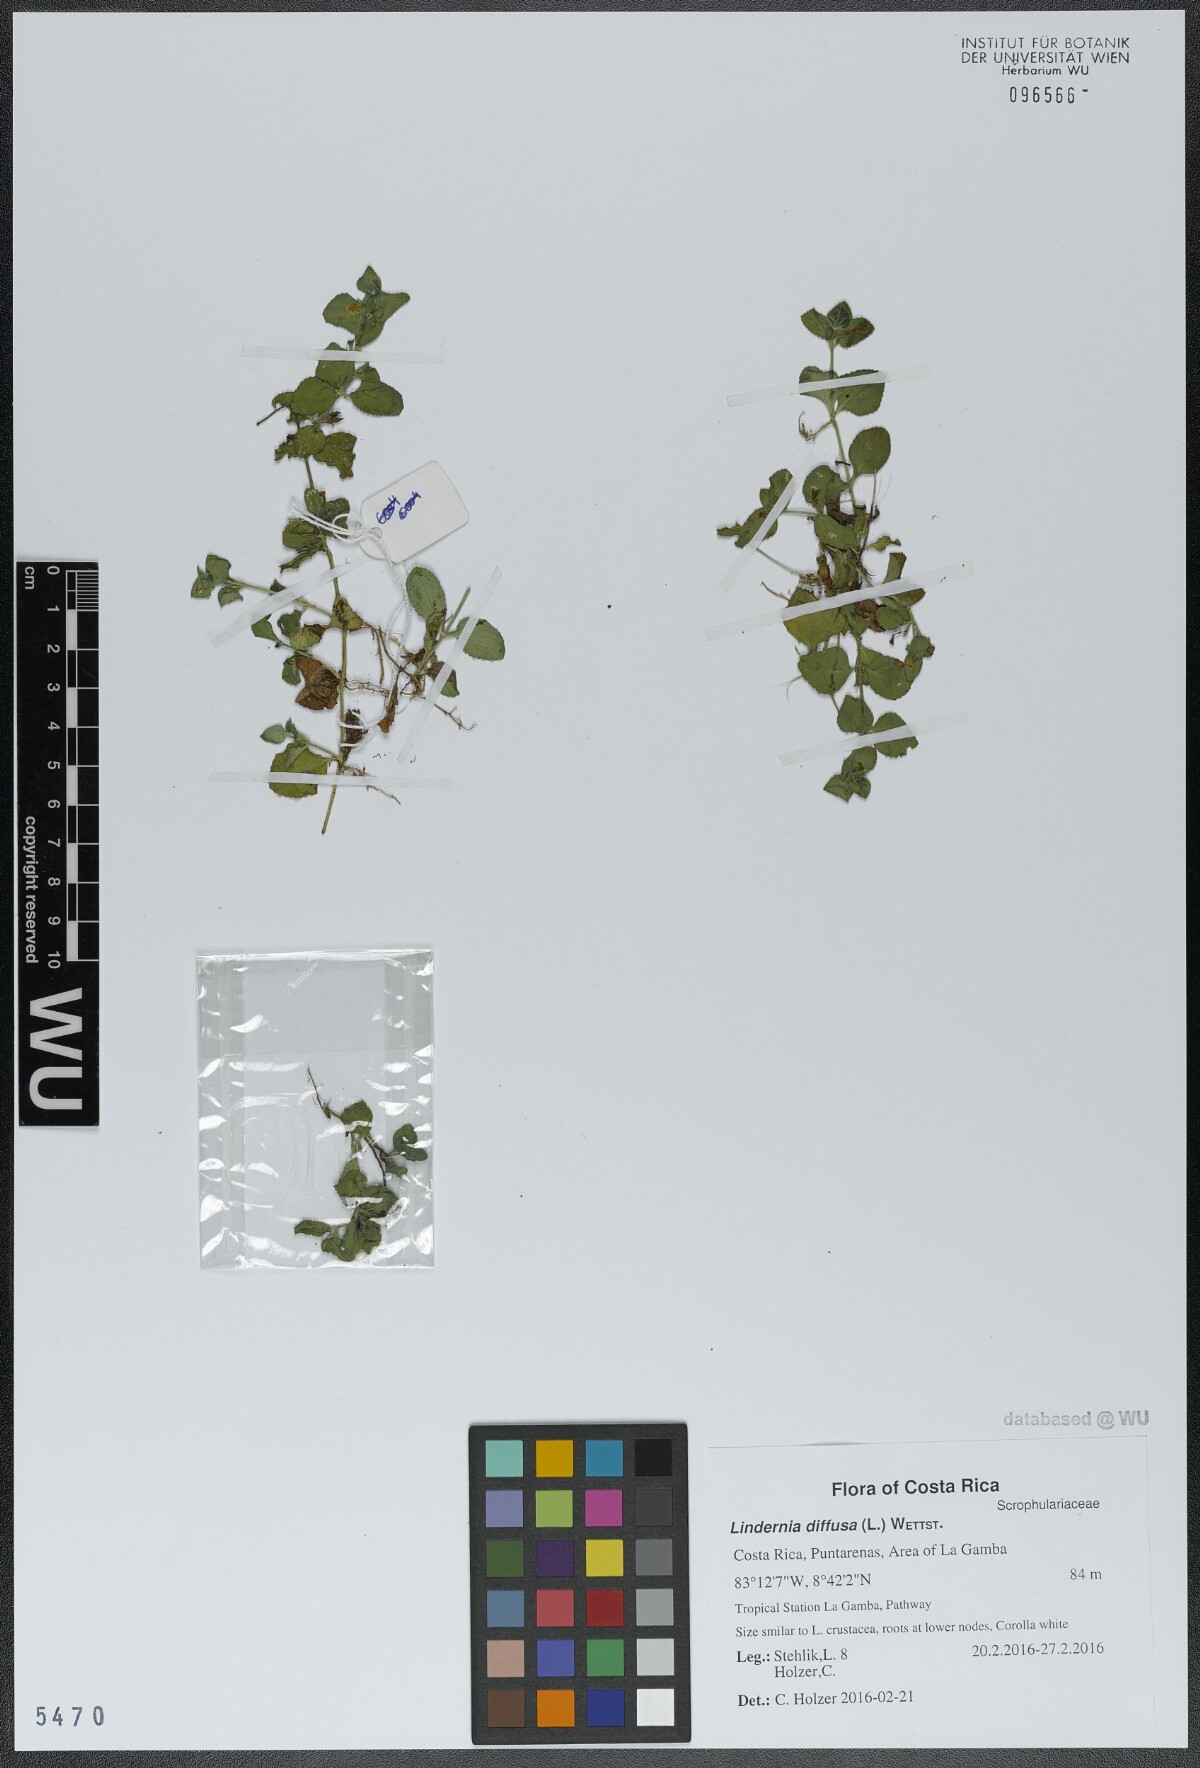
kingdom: Plantae
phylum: Tracheophyta
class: Magnoliopsida
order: Lamiales
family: Linderniaceae
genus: Vandellia
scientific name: Vandellia diffusa
